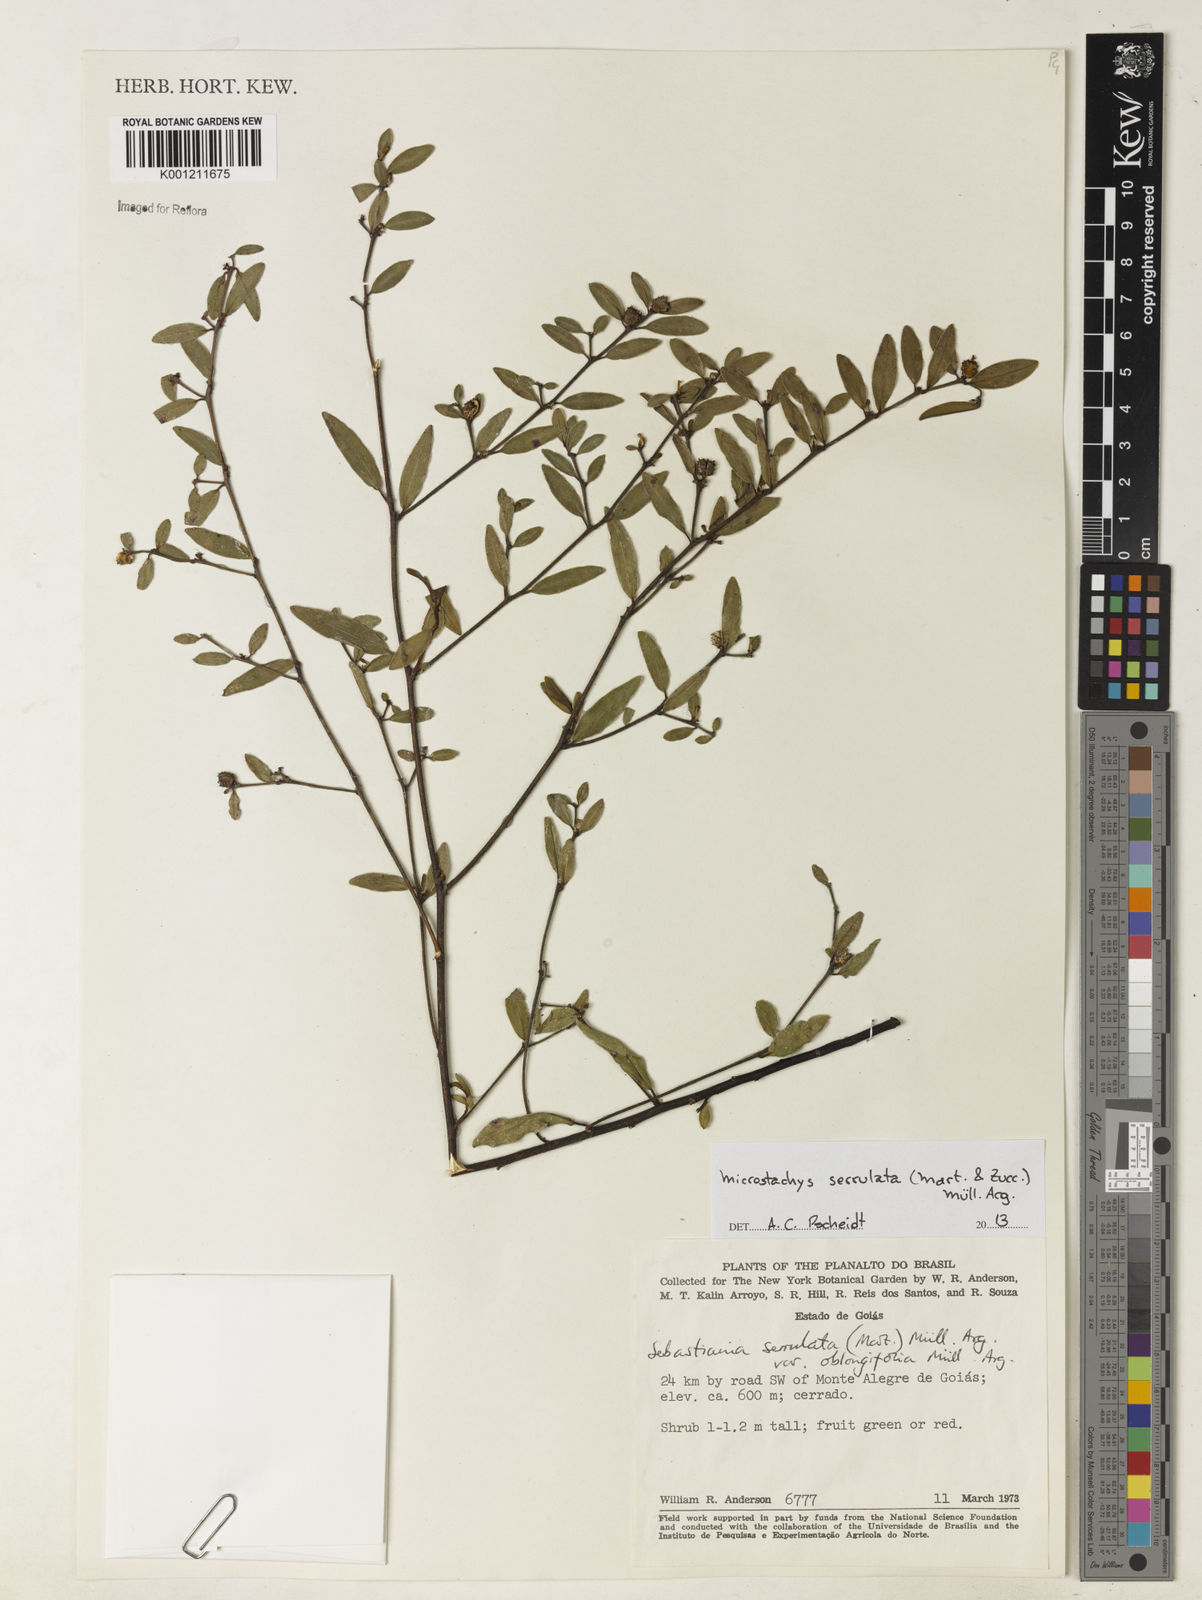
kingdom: Plantae
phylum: Tracheophyta
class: Magnoliopsida
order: Malpighiales
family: Euphorbiaceae
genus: Microstachys
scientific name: Microstachys
